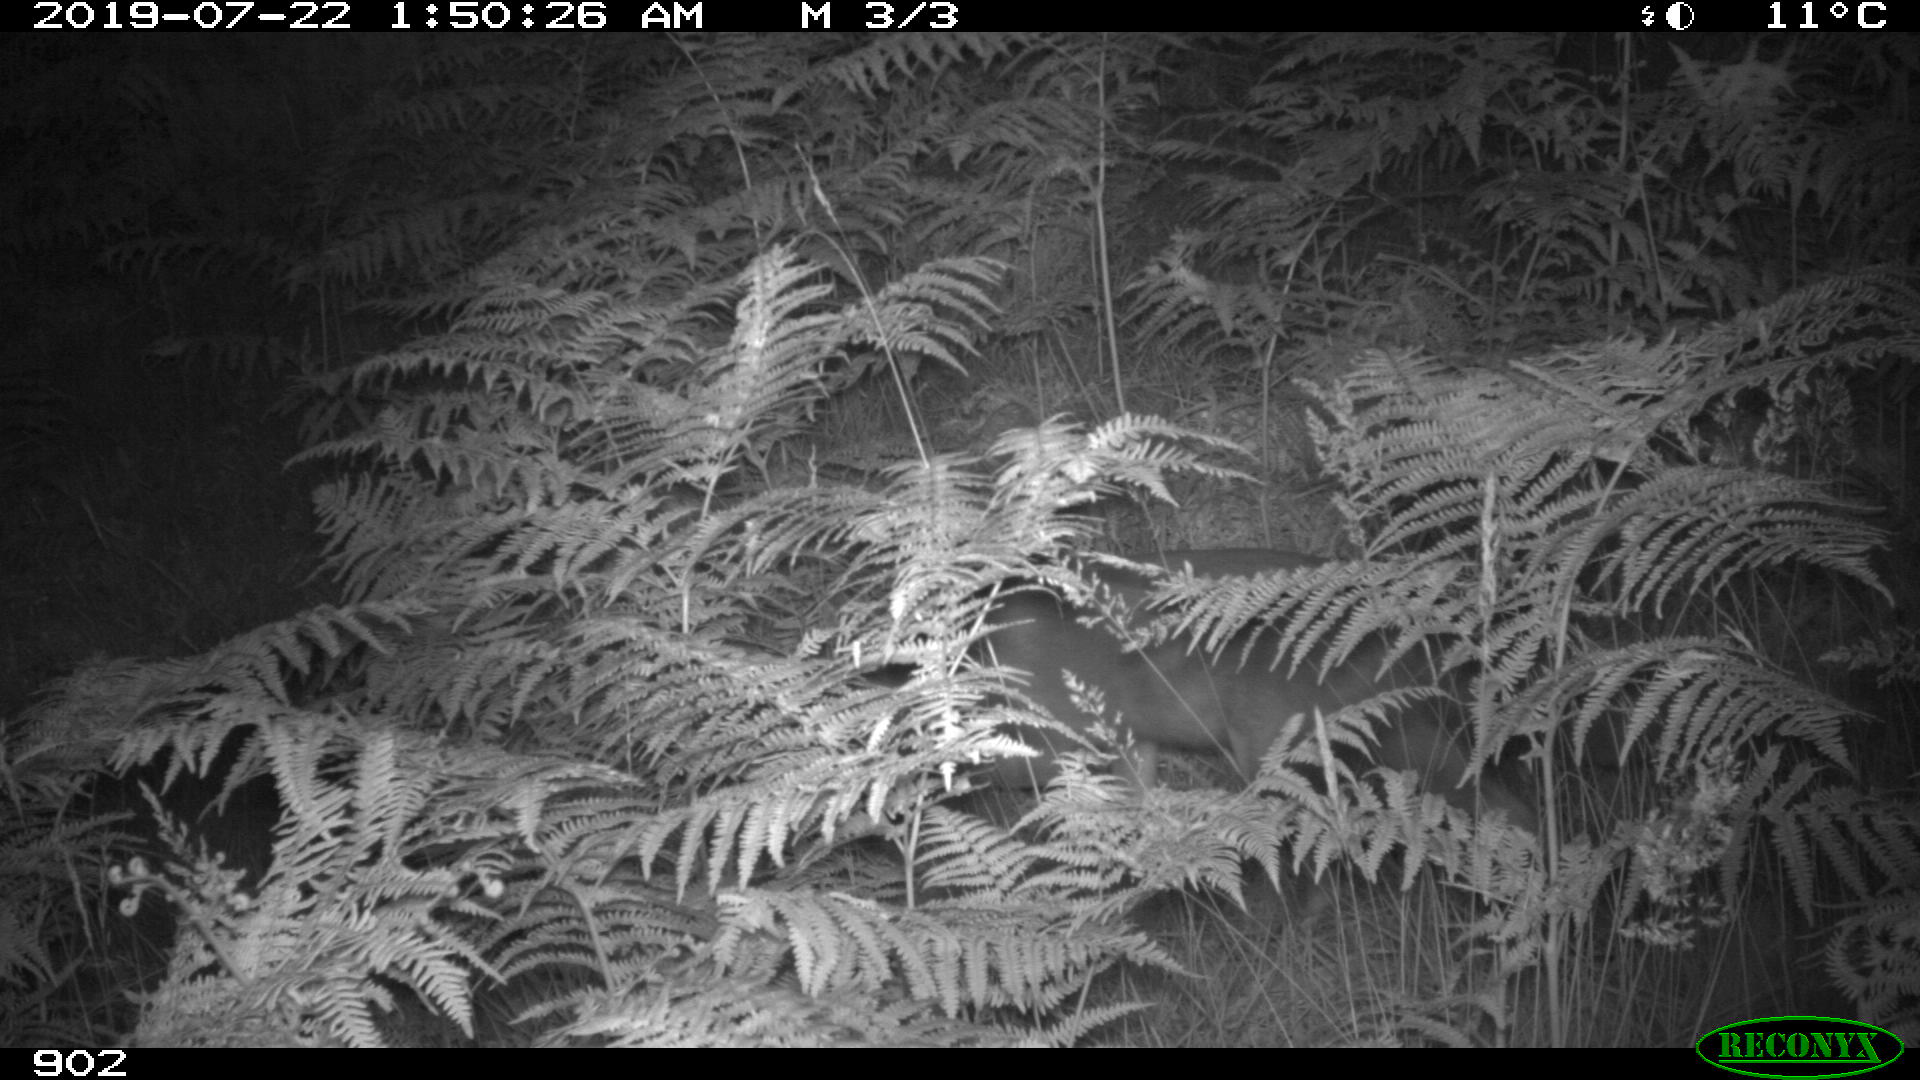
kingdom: Animalia
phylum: Chordata
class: Mammalia
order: Carnivora
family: Canidae
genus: Vulpes
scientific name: Vulpes vulpes
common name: Red fox
